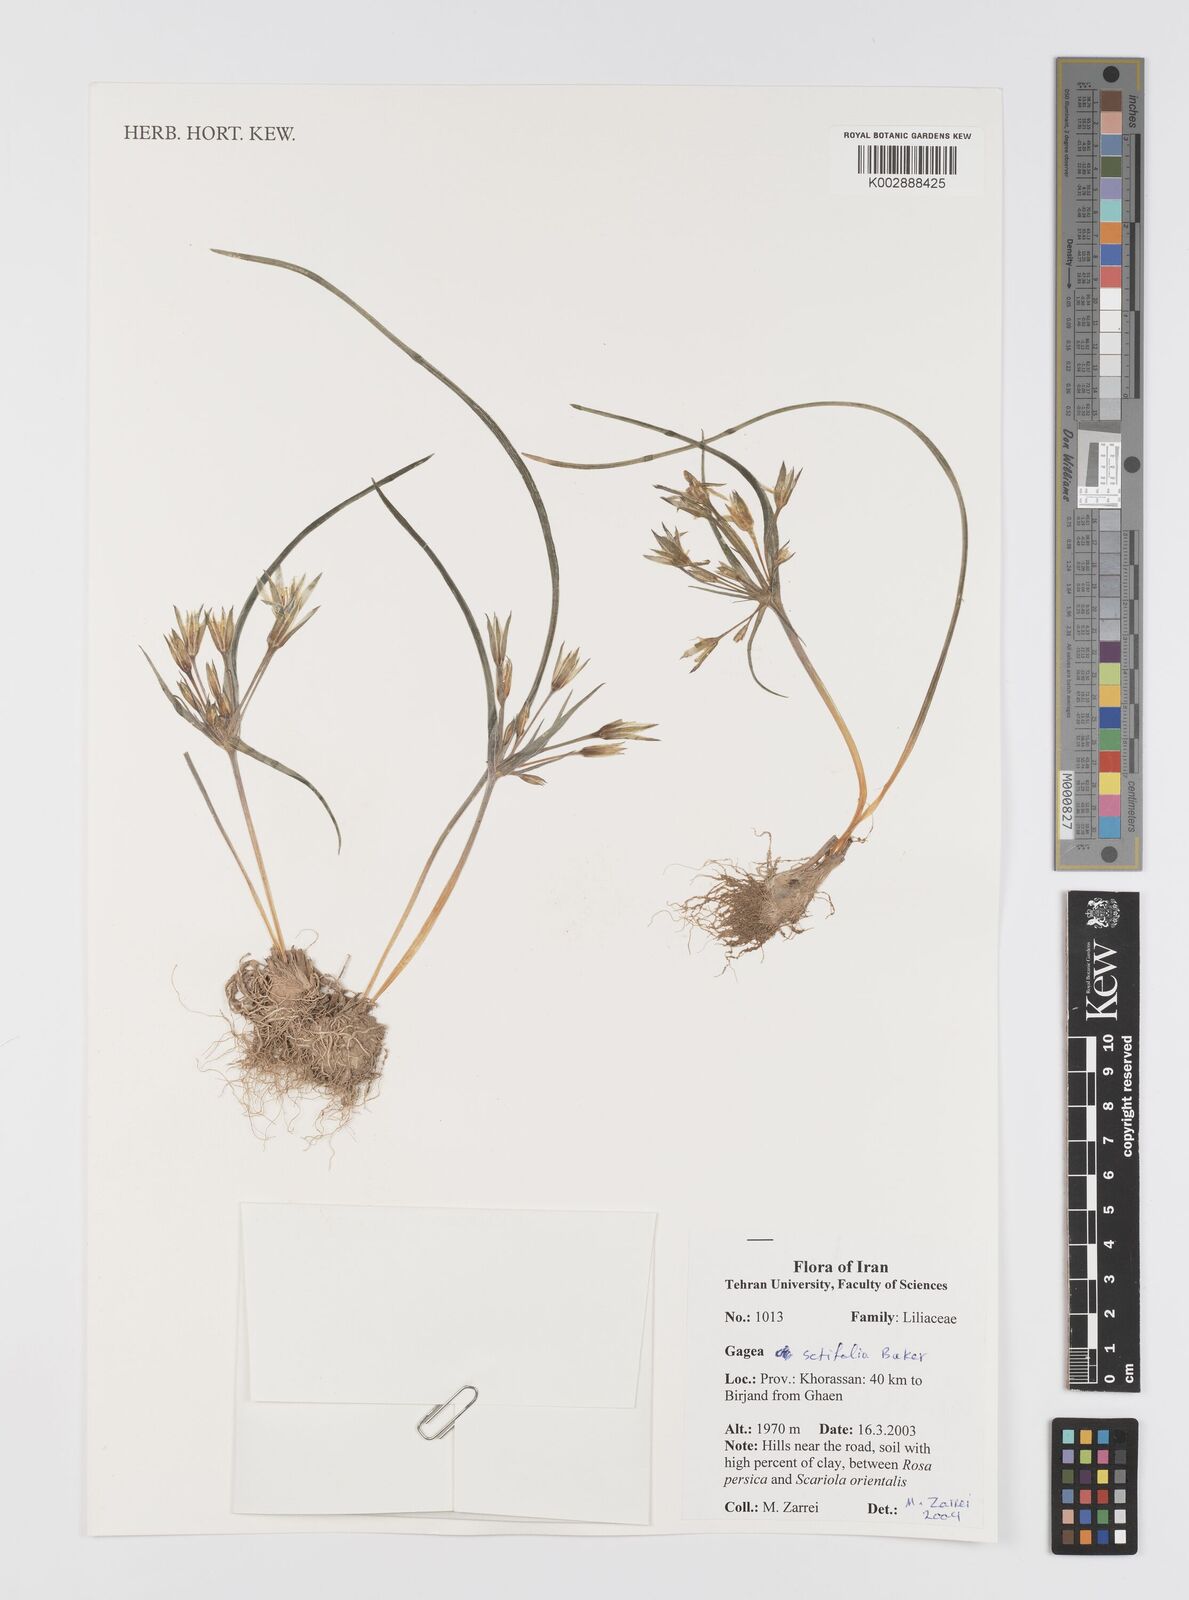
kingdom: Plantae
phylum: Tracheophyta
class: Liliopsida
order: Liliales
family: Liliaceae
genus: Gagea
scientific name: Gagea setifolia
